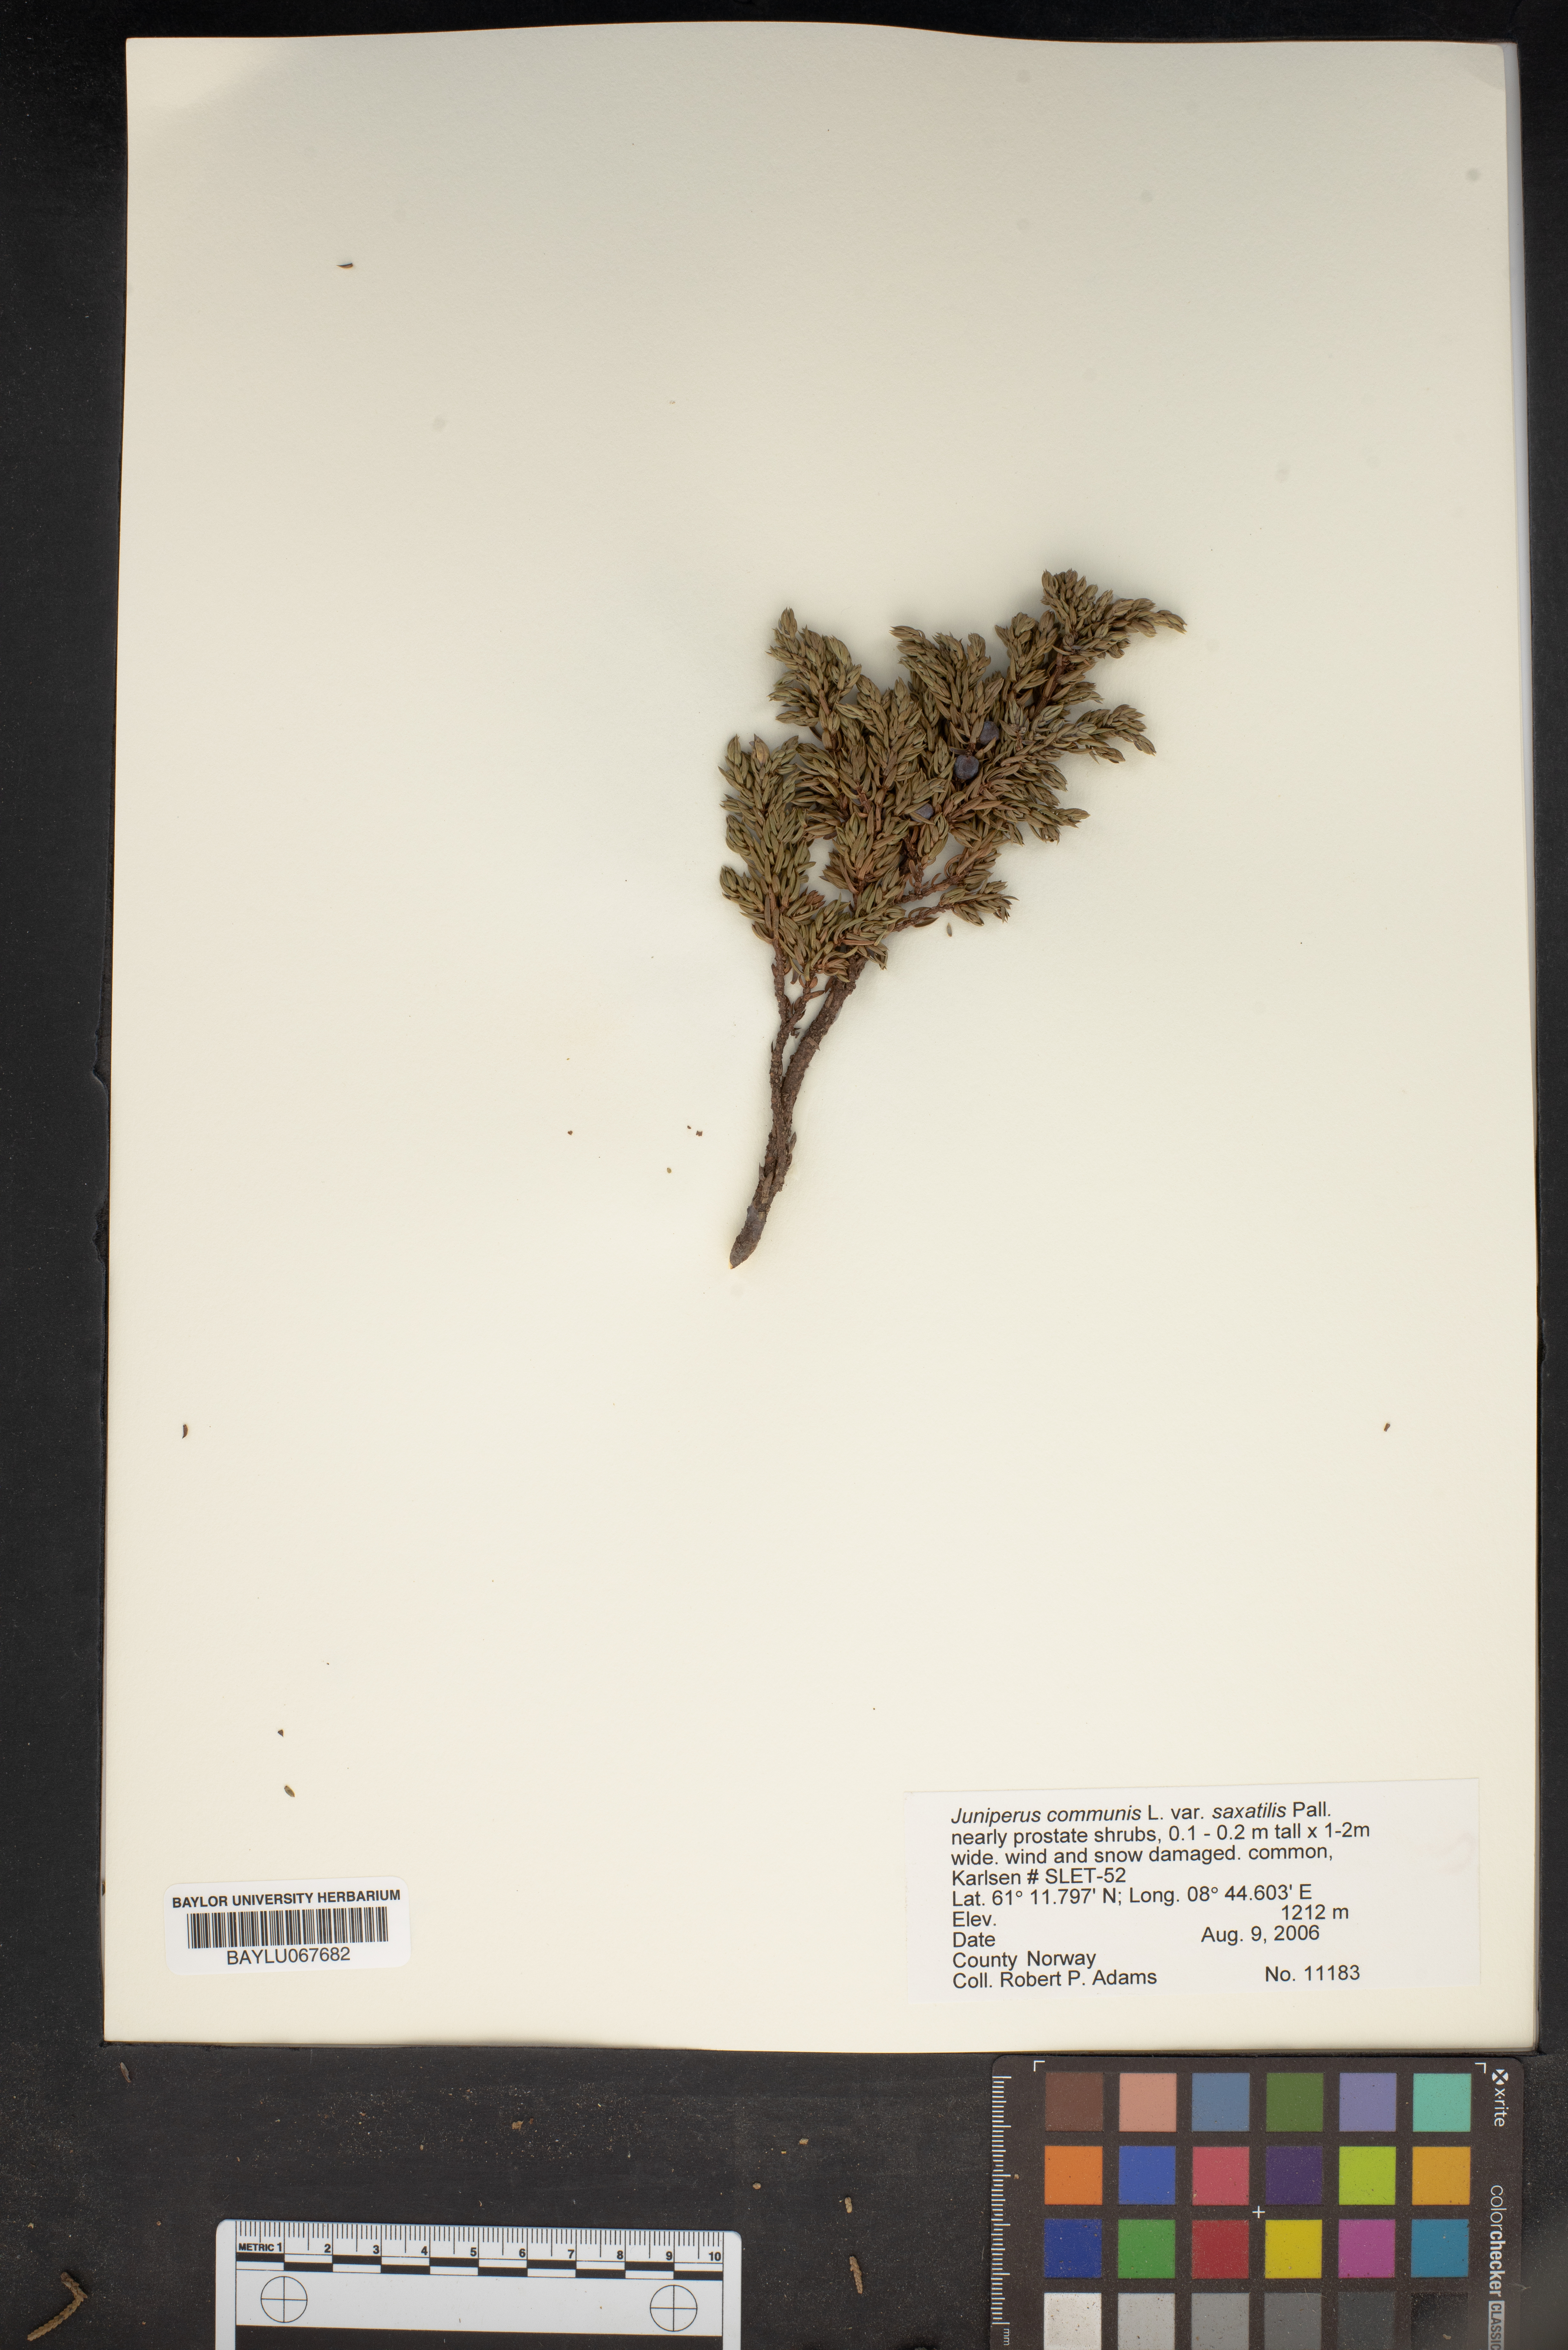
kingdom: Plantae
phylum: Tracheophyta
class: Pinopsida
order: Pinales
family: Cupressaceae
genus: Juniperus
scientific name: Juniperus communis
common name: Common juniper
